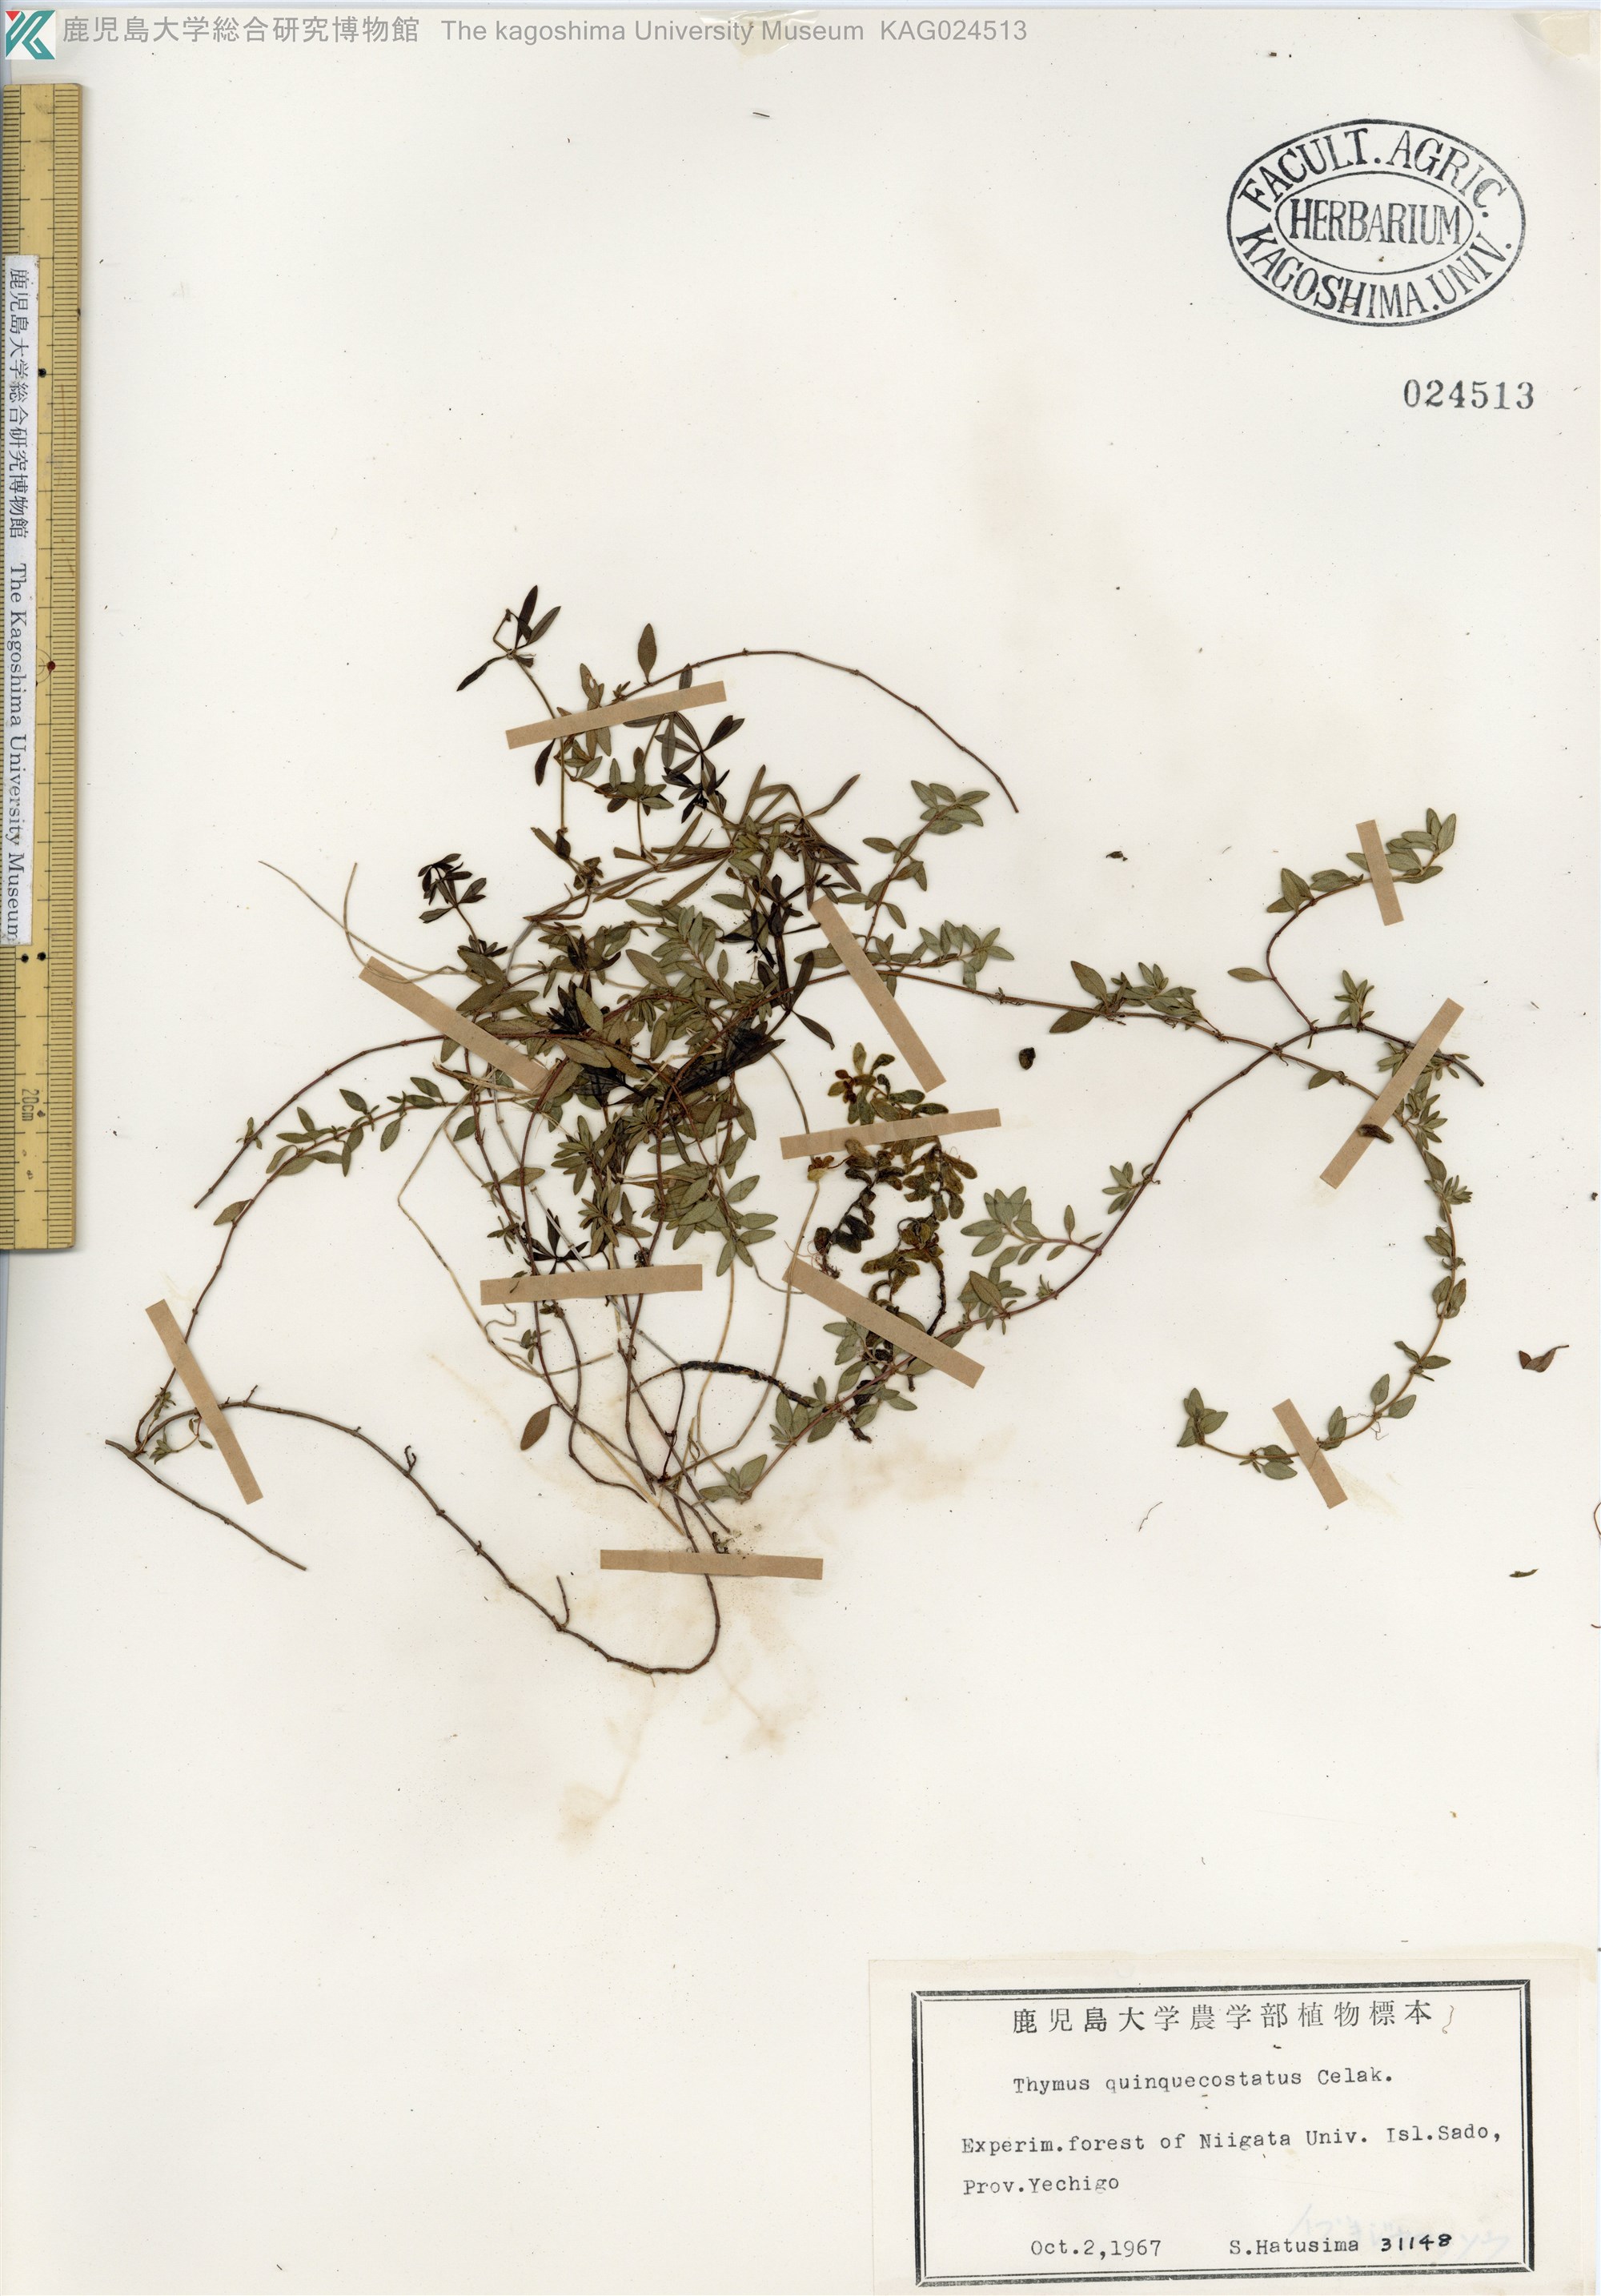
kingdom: Plantae
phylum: Tracheophyta
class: Magnoliopsida
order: Lamiales
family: Lamiaceae
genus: Thymus
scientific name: Thymus quinquecostatus
